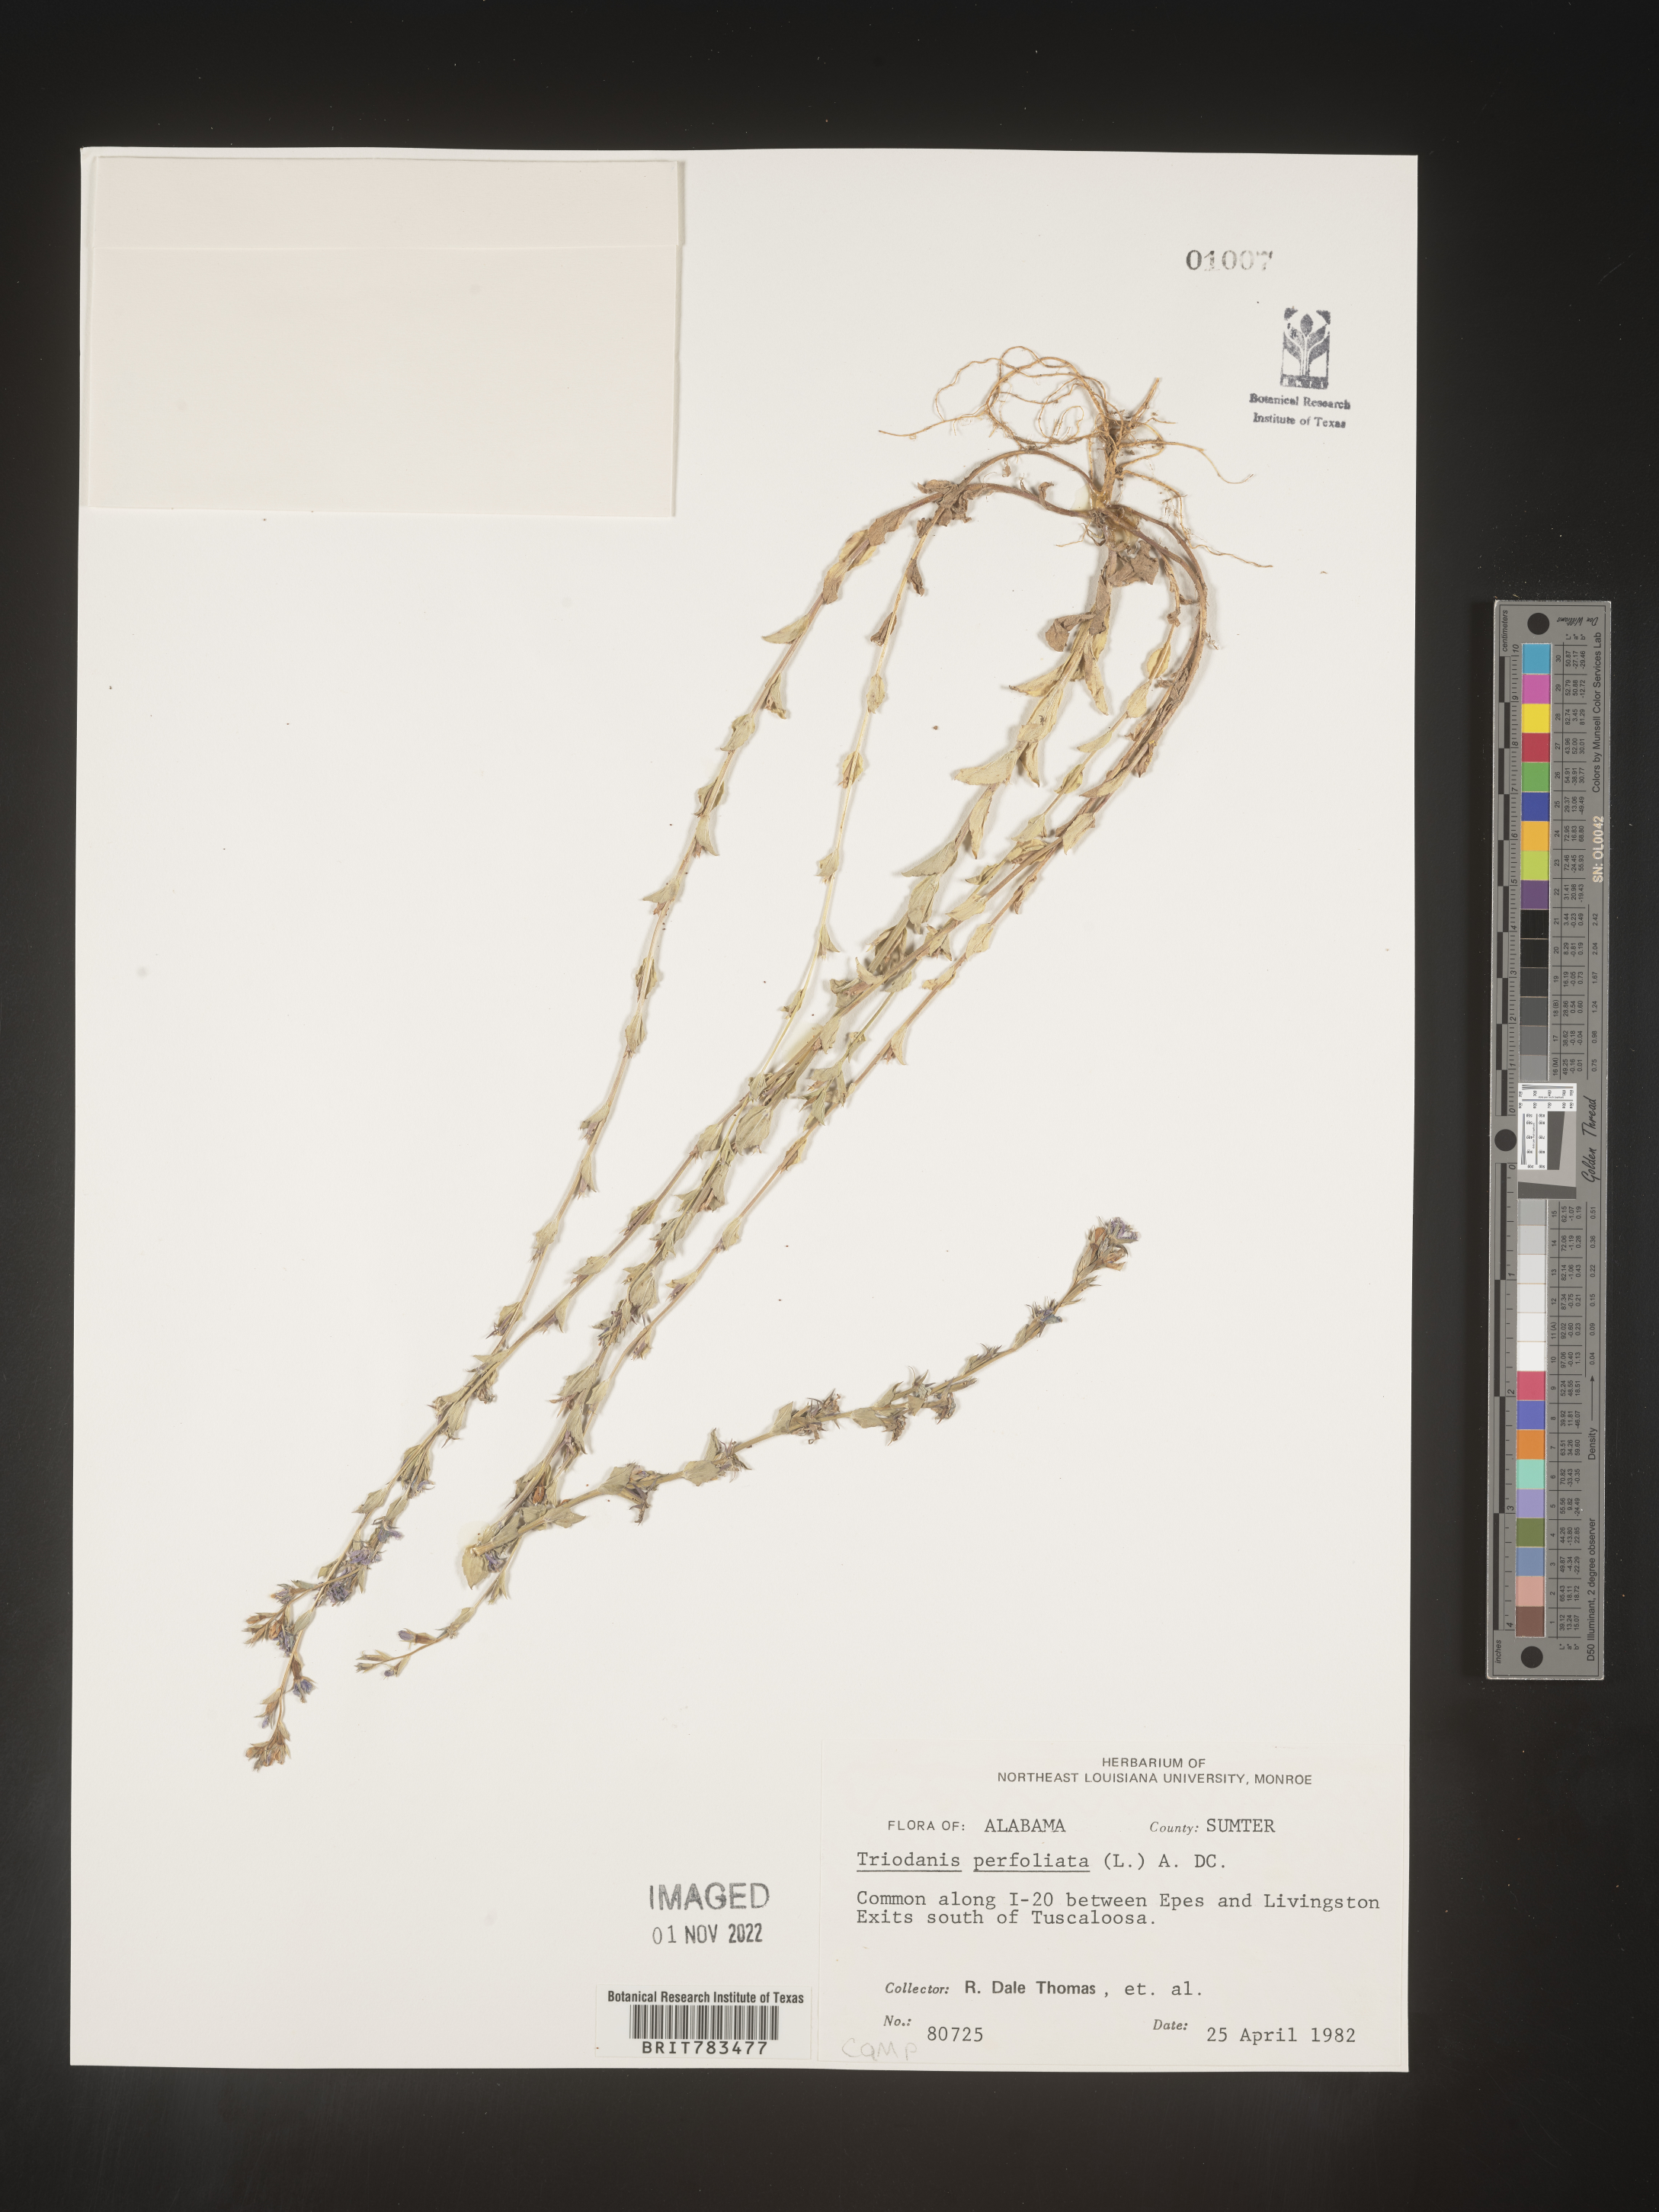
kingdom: Plantae
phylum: Tracheophyta
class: Magnoliopsida
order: Asterales
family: Campanulaceae
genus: Triodanis
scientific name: Triodanis perfoliata
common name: Clasping venus' looking-glass
